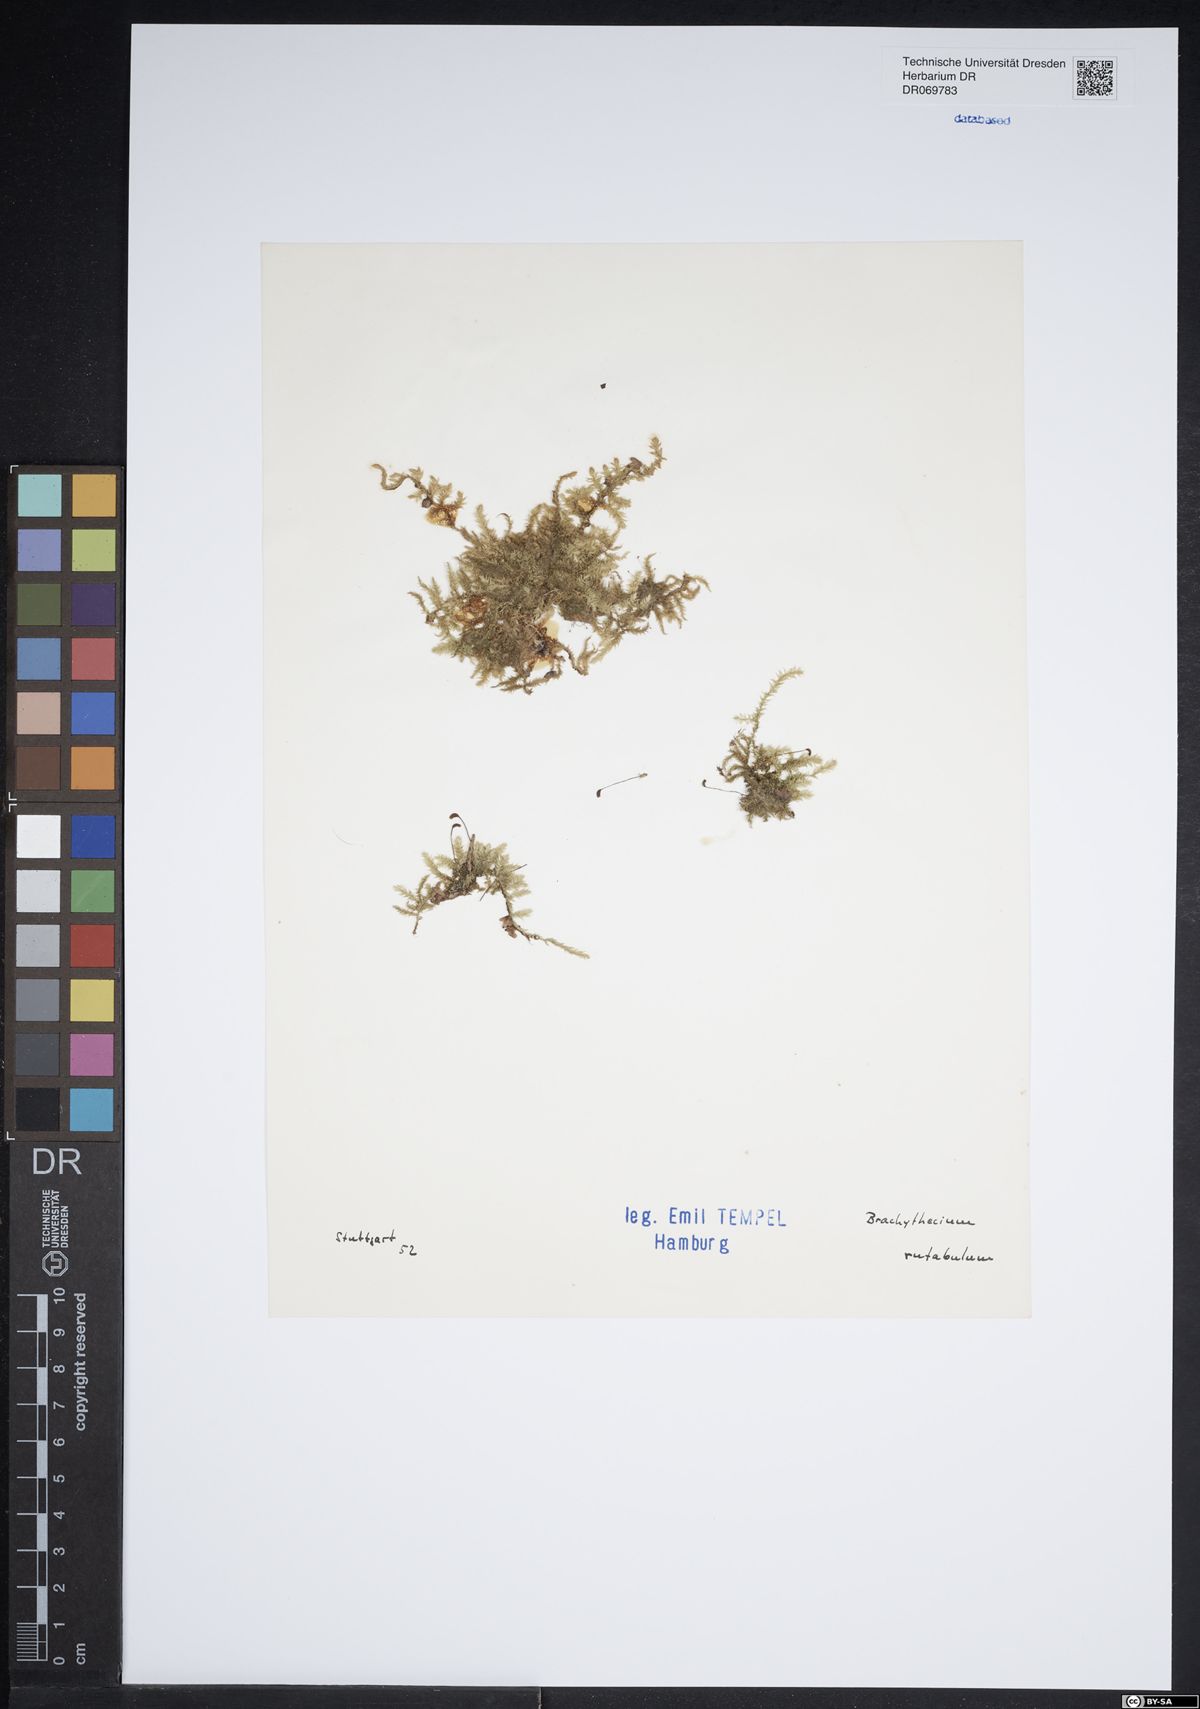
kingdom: Plantae
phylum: Bryophyta
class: Bryopsida
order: Hypnales
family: Brachytheciaceae
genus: Brachythecium
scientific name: Brachythecium rutabulum
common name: Rough-stalked feather-moss
